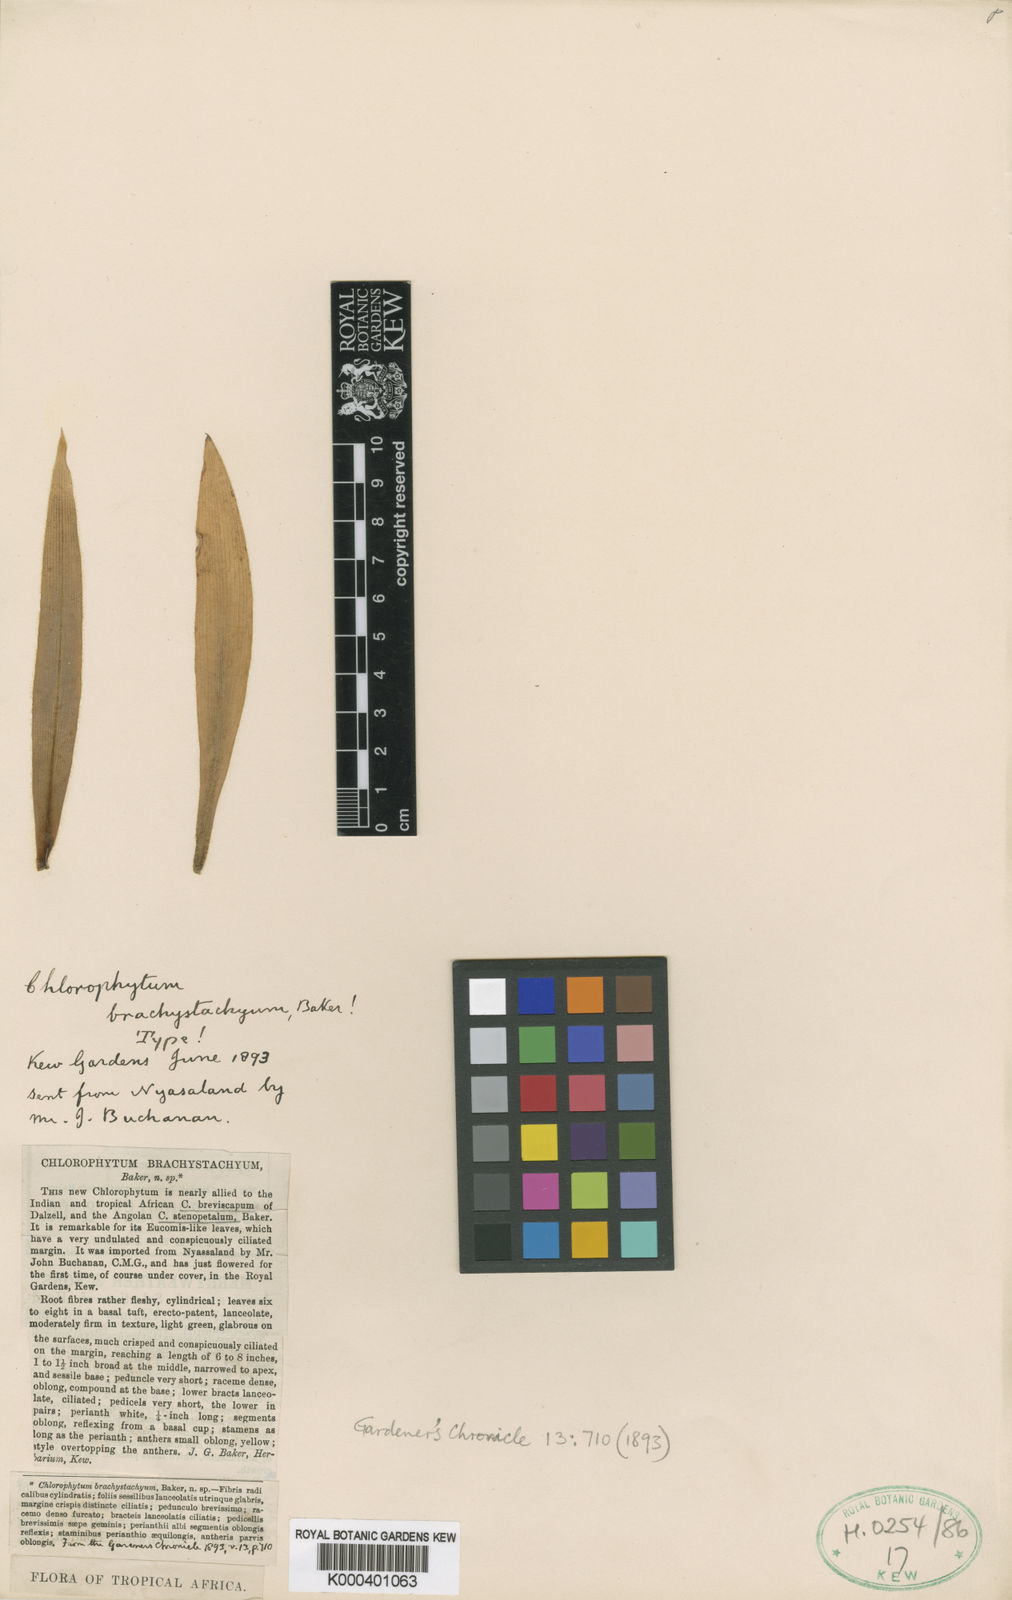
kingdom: Plantae
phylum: Tracheophyta
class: Liliopsida
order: Asparagales
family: Asparagaceae
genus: Chlorophytum
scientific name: Chlorophytum brachystachyum
